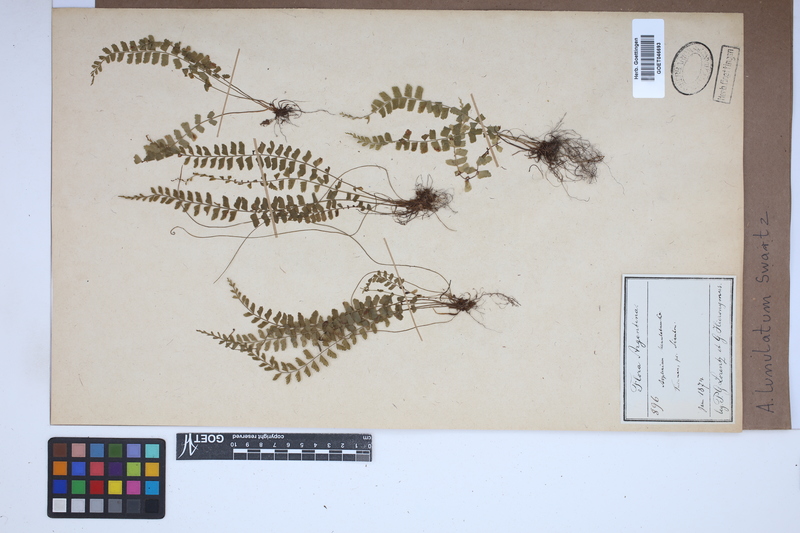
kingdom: Plantae
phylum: Tracheophyta
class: Polypodiopsida
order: Polypodiales
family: Aspleniaceae
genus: Asplenium
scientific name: Asplenium lunulatum
